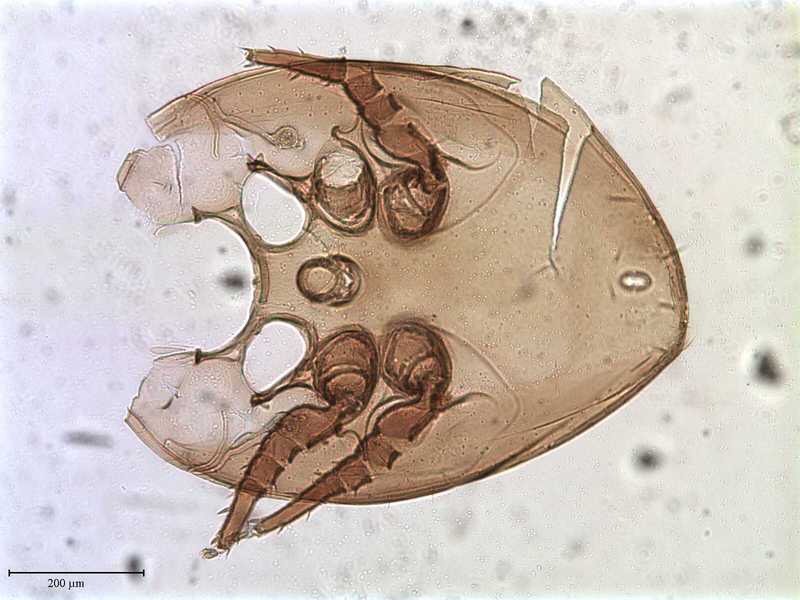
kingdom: Animalia
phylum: Arthropoda
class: Arachnida
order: Mesostigmata
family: Uropodidae
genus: Uroobovella
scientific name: Uroobovella
